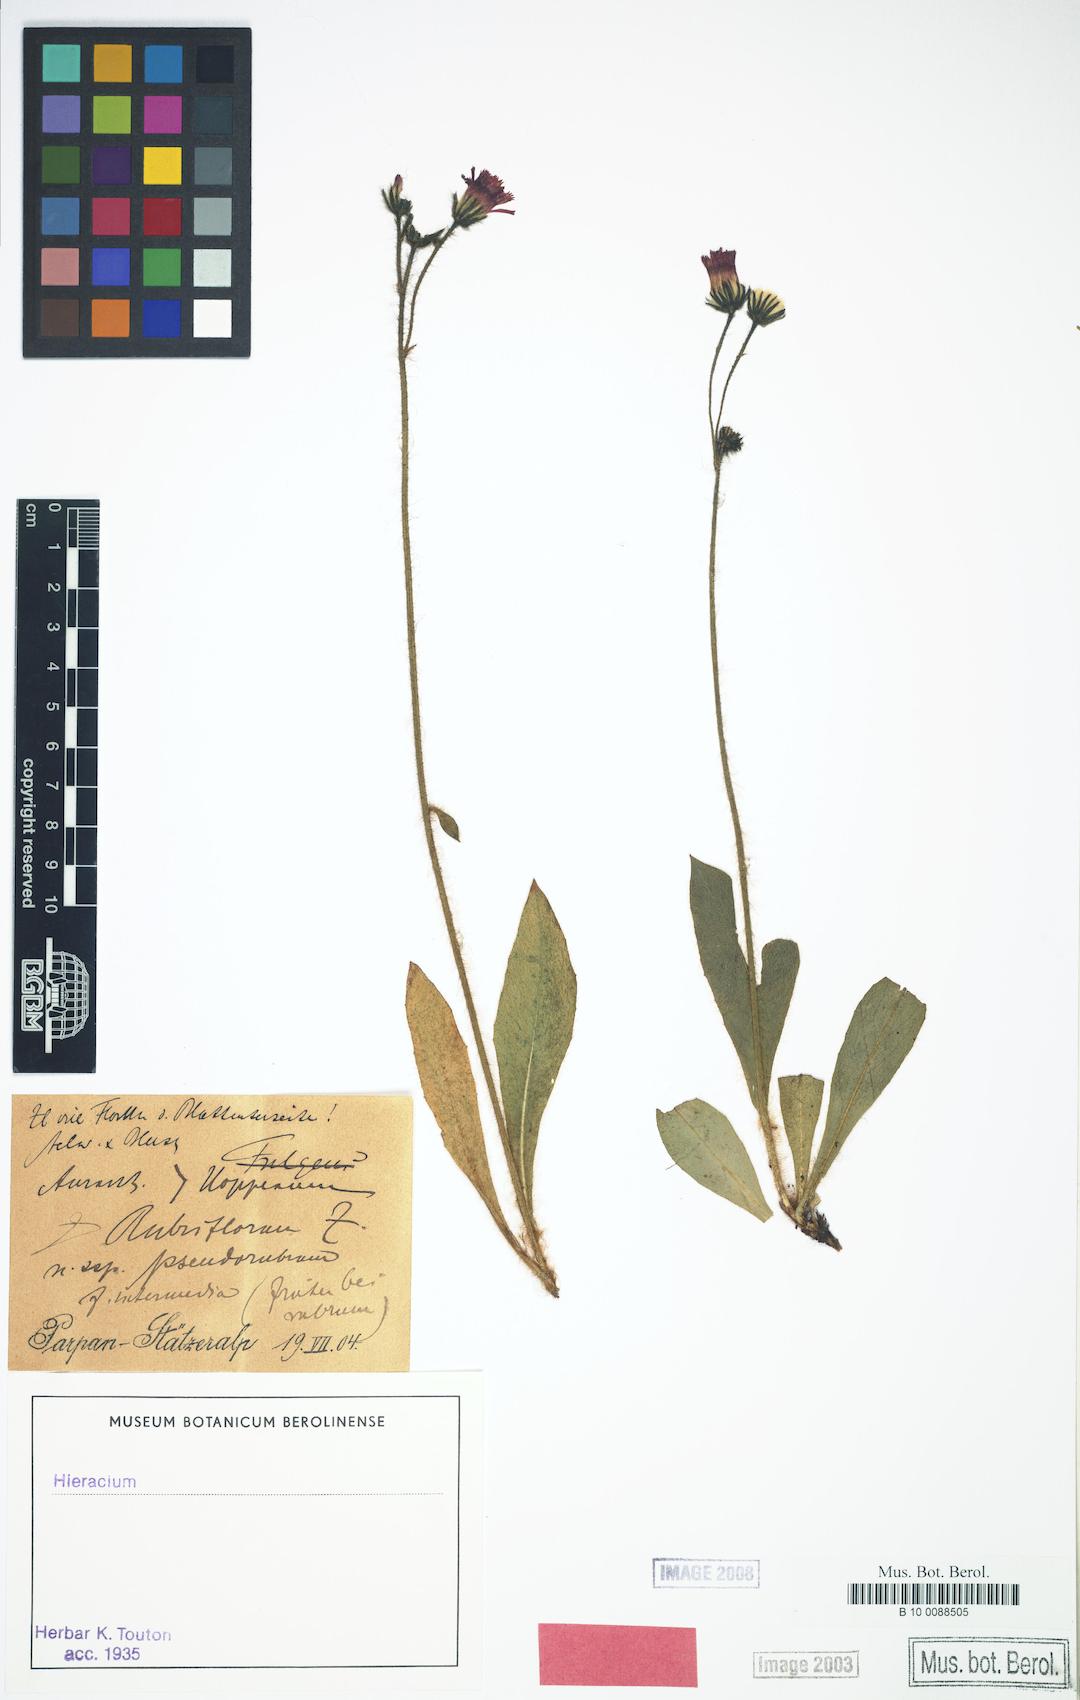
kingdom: Plantae
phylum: Tracheophyta
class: Magnoliopsida
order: Asterales
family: Asteraceae
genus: Pilosella
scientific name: Pilosella rubriflora
